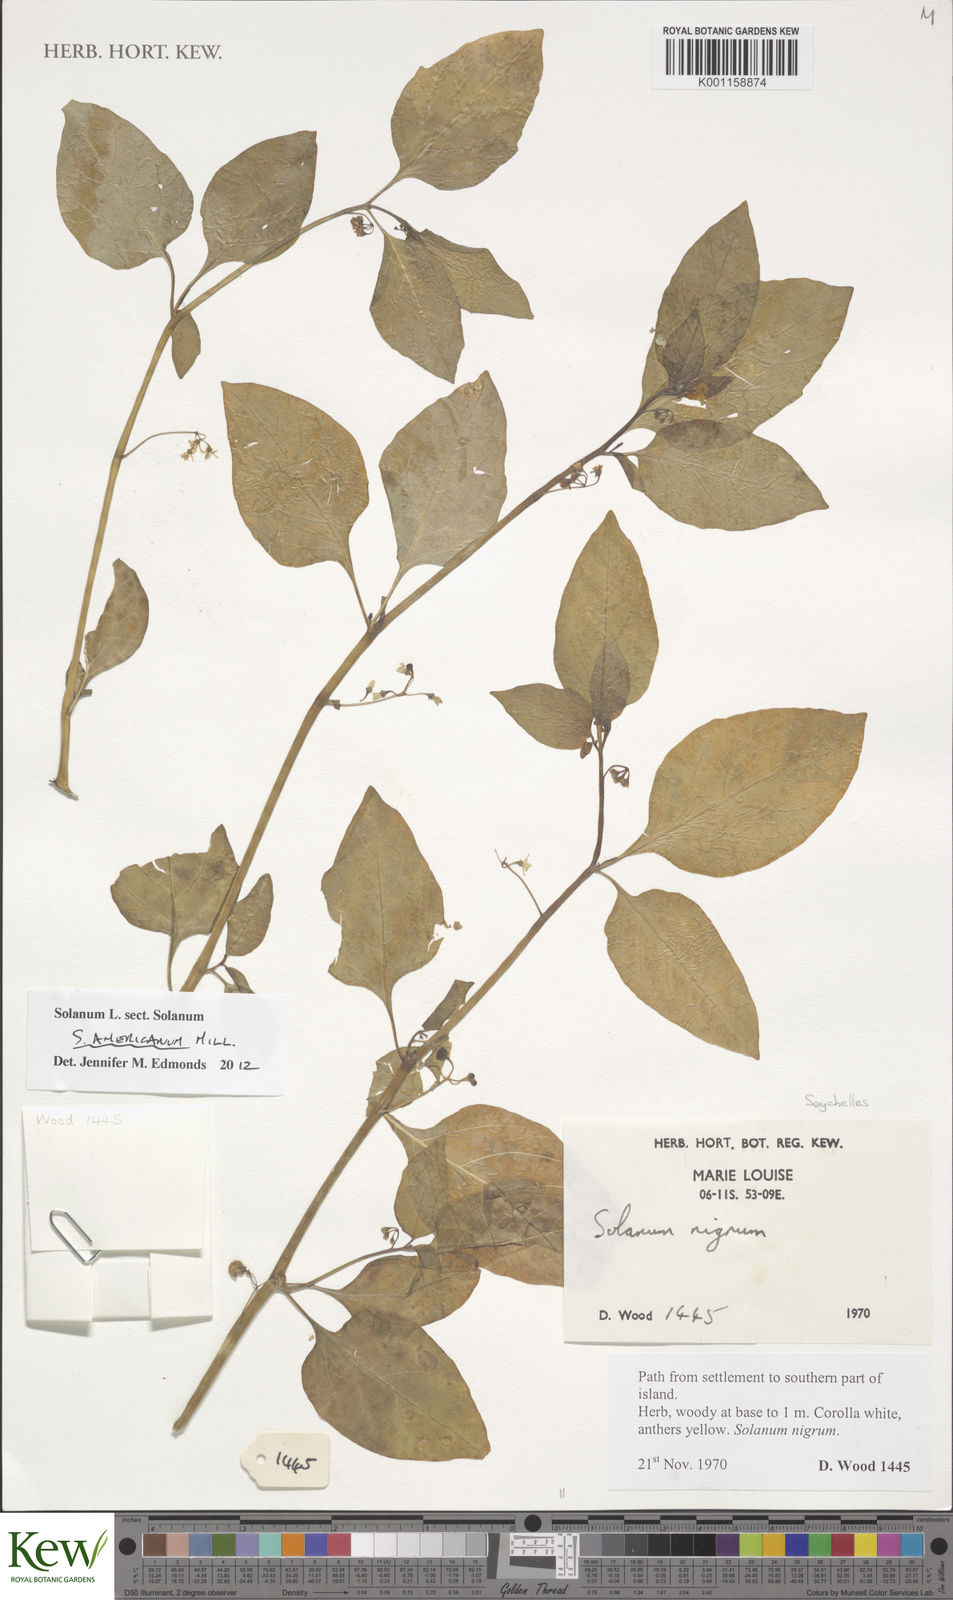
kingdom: Plantae
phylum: Tracheophyta
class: Magnoliopsida
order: Solanales
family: Solanaceae
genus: Solanum
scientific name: Solanum americanum
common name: American black nightshade
